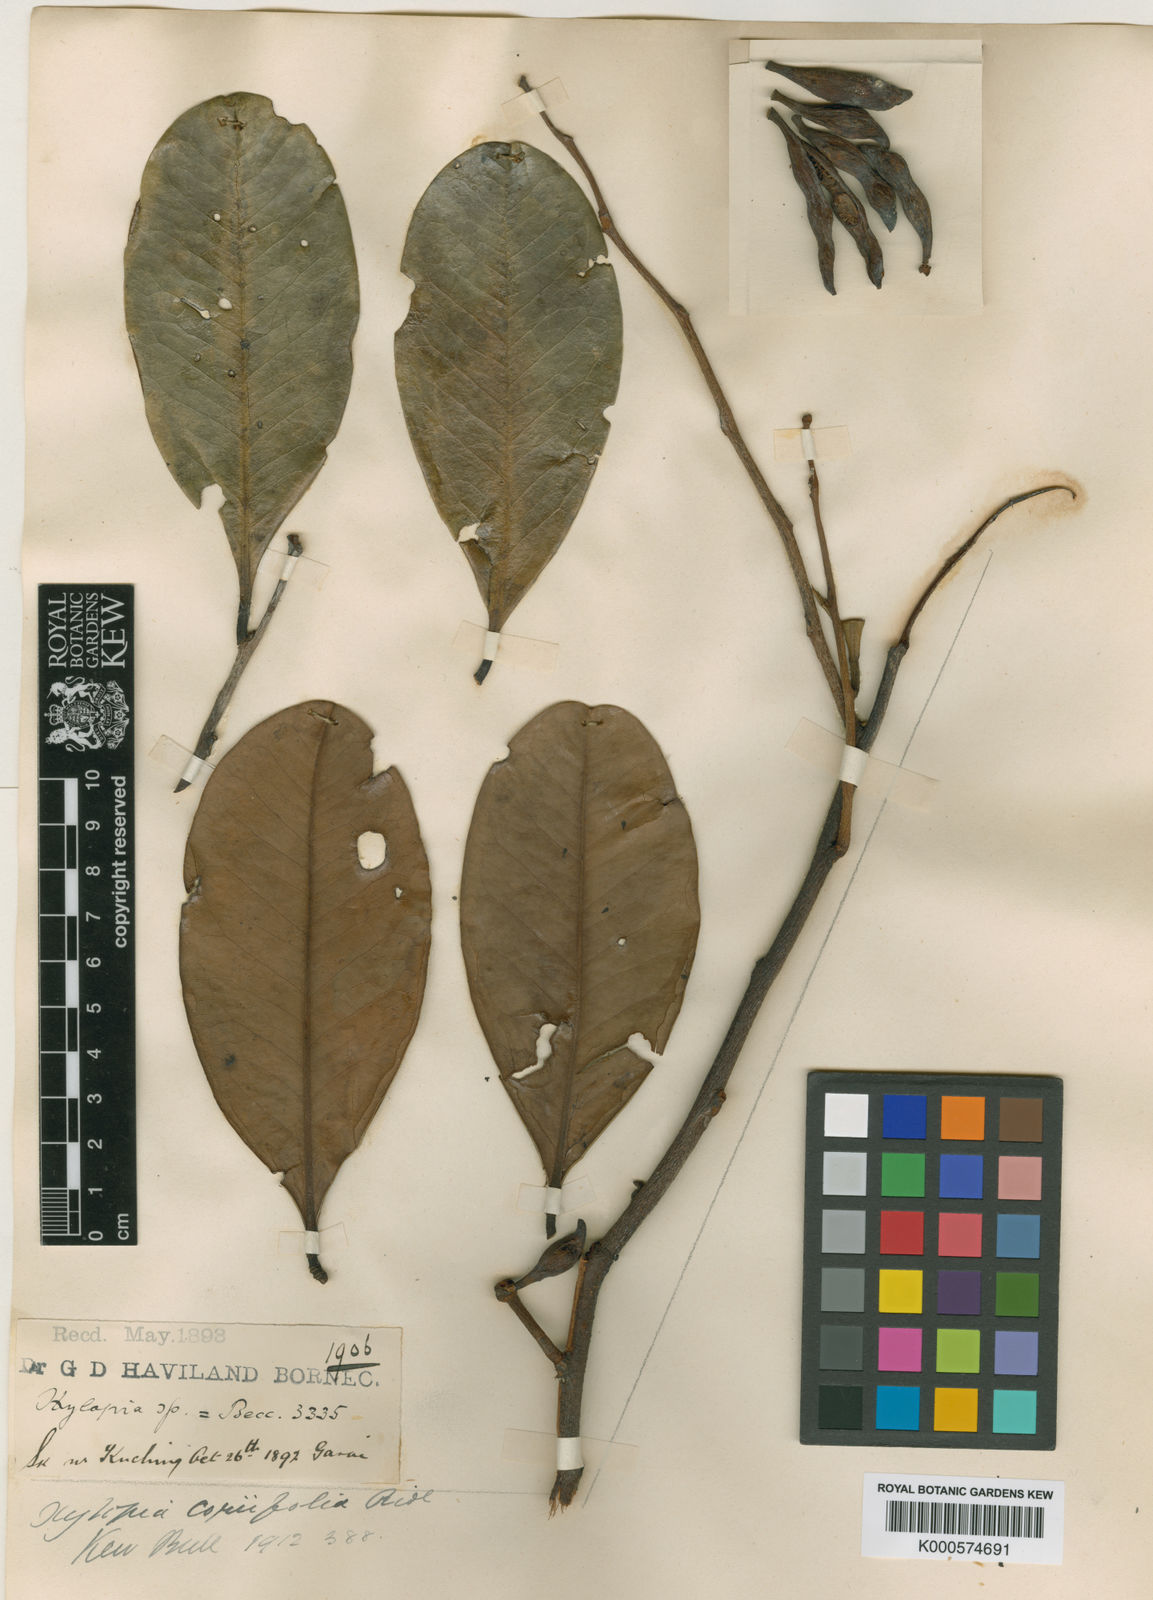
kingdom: Plantae
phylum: Tracheophyta
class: Magnoliopsida
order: Magnoliales
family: Annonaceae
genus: Xylopia
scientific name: Xylopia coriifolia
